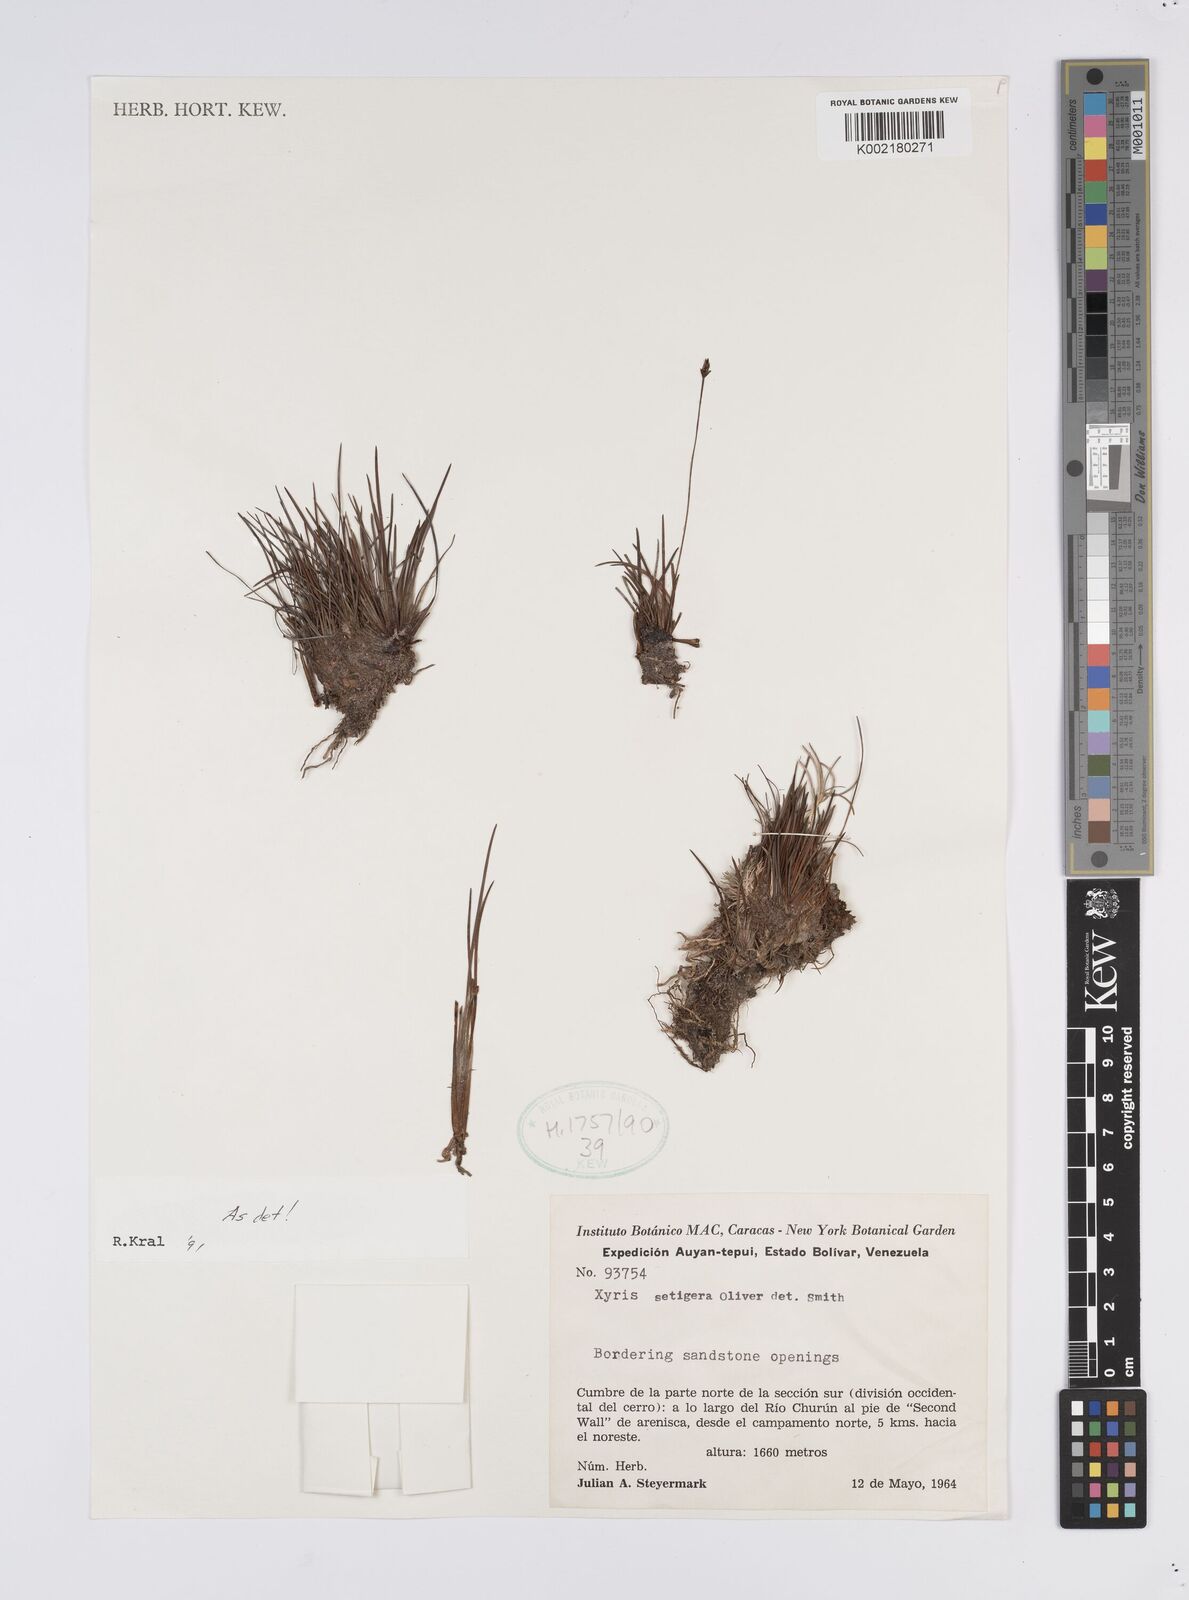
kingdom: Plantae
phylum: Tracheophyta
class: Liliopsida
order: Poales
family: Xyridaceae
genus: Xyris
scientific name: Xyris setigera
